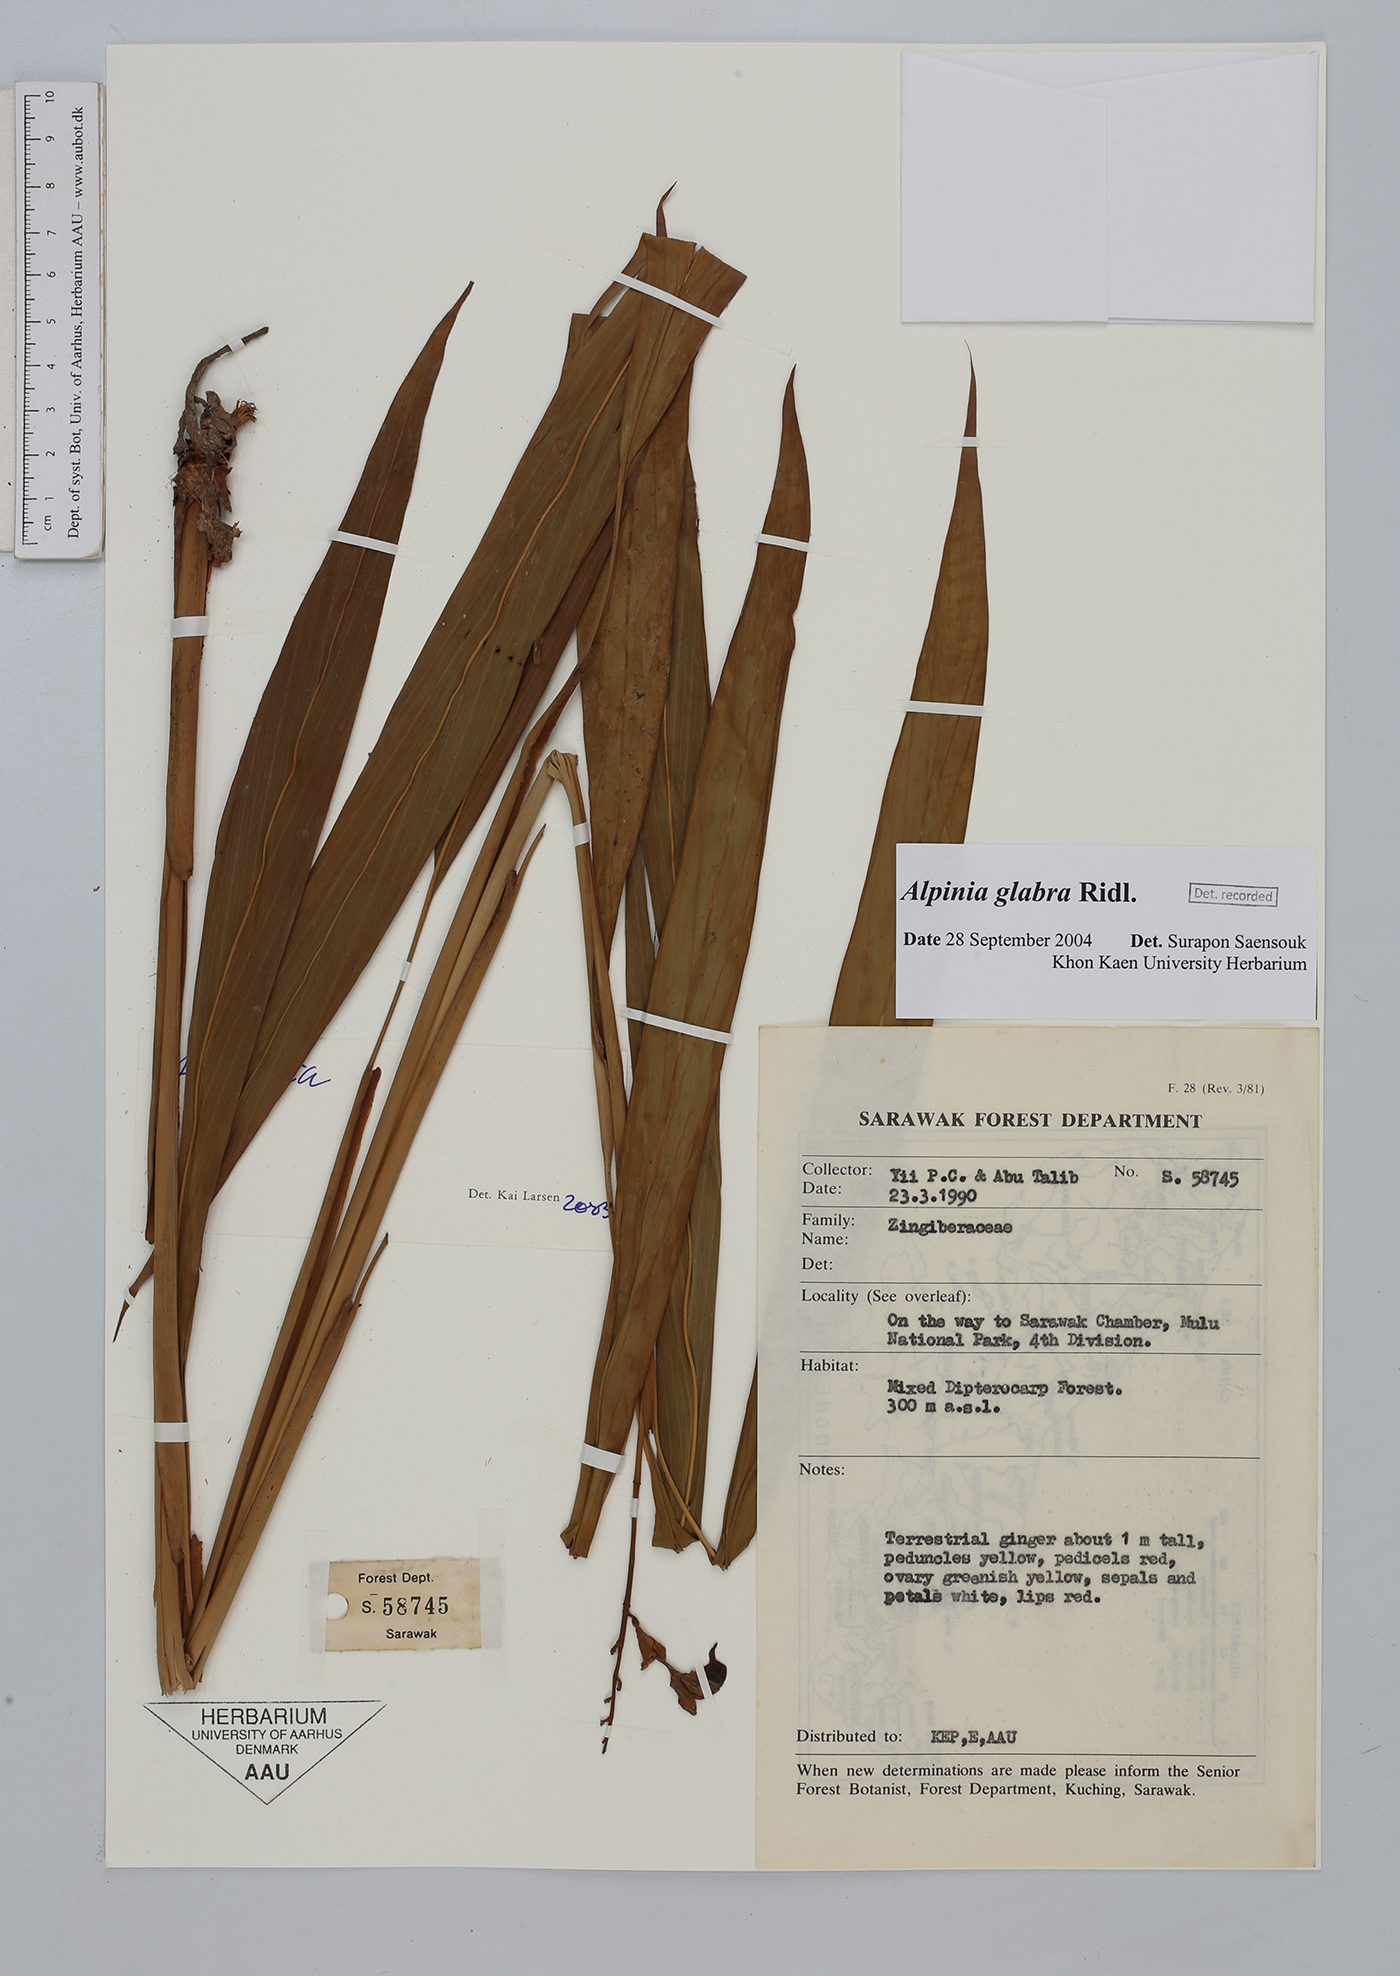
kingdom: Plantae
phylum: Tracheophyta
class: Liliopsida
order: Zingiberales
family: Zingiberaceae
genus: Alpinia
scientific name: Alpinia glabra
